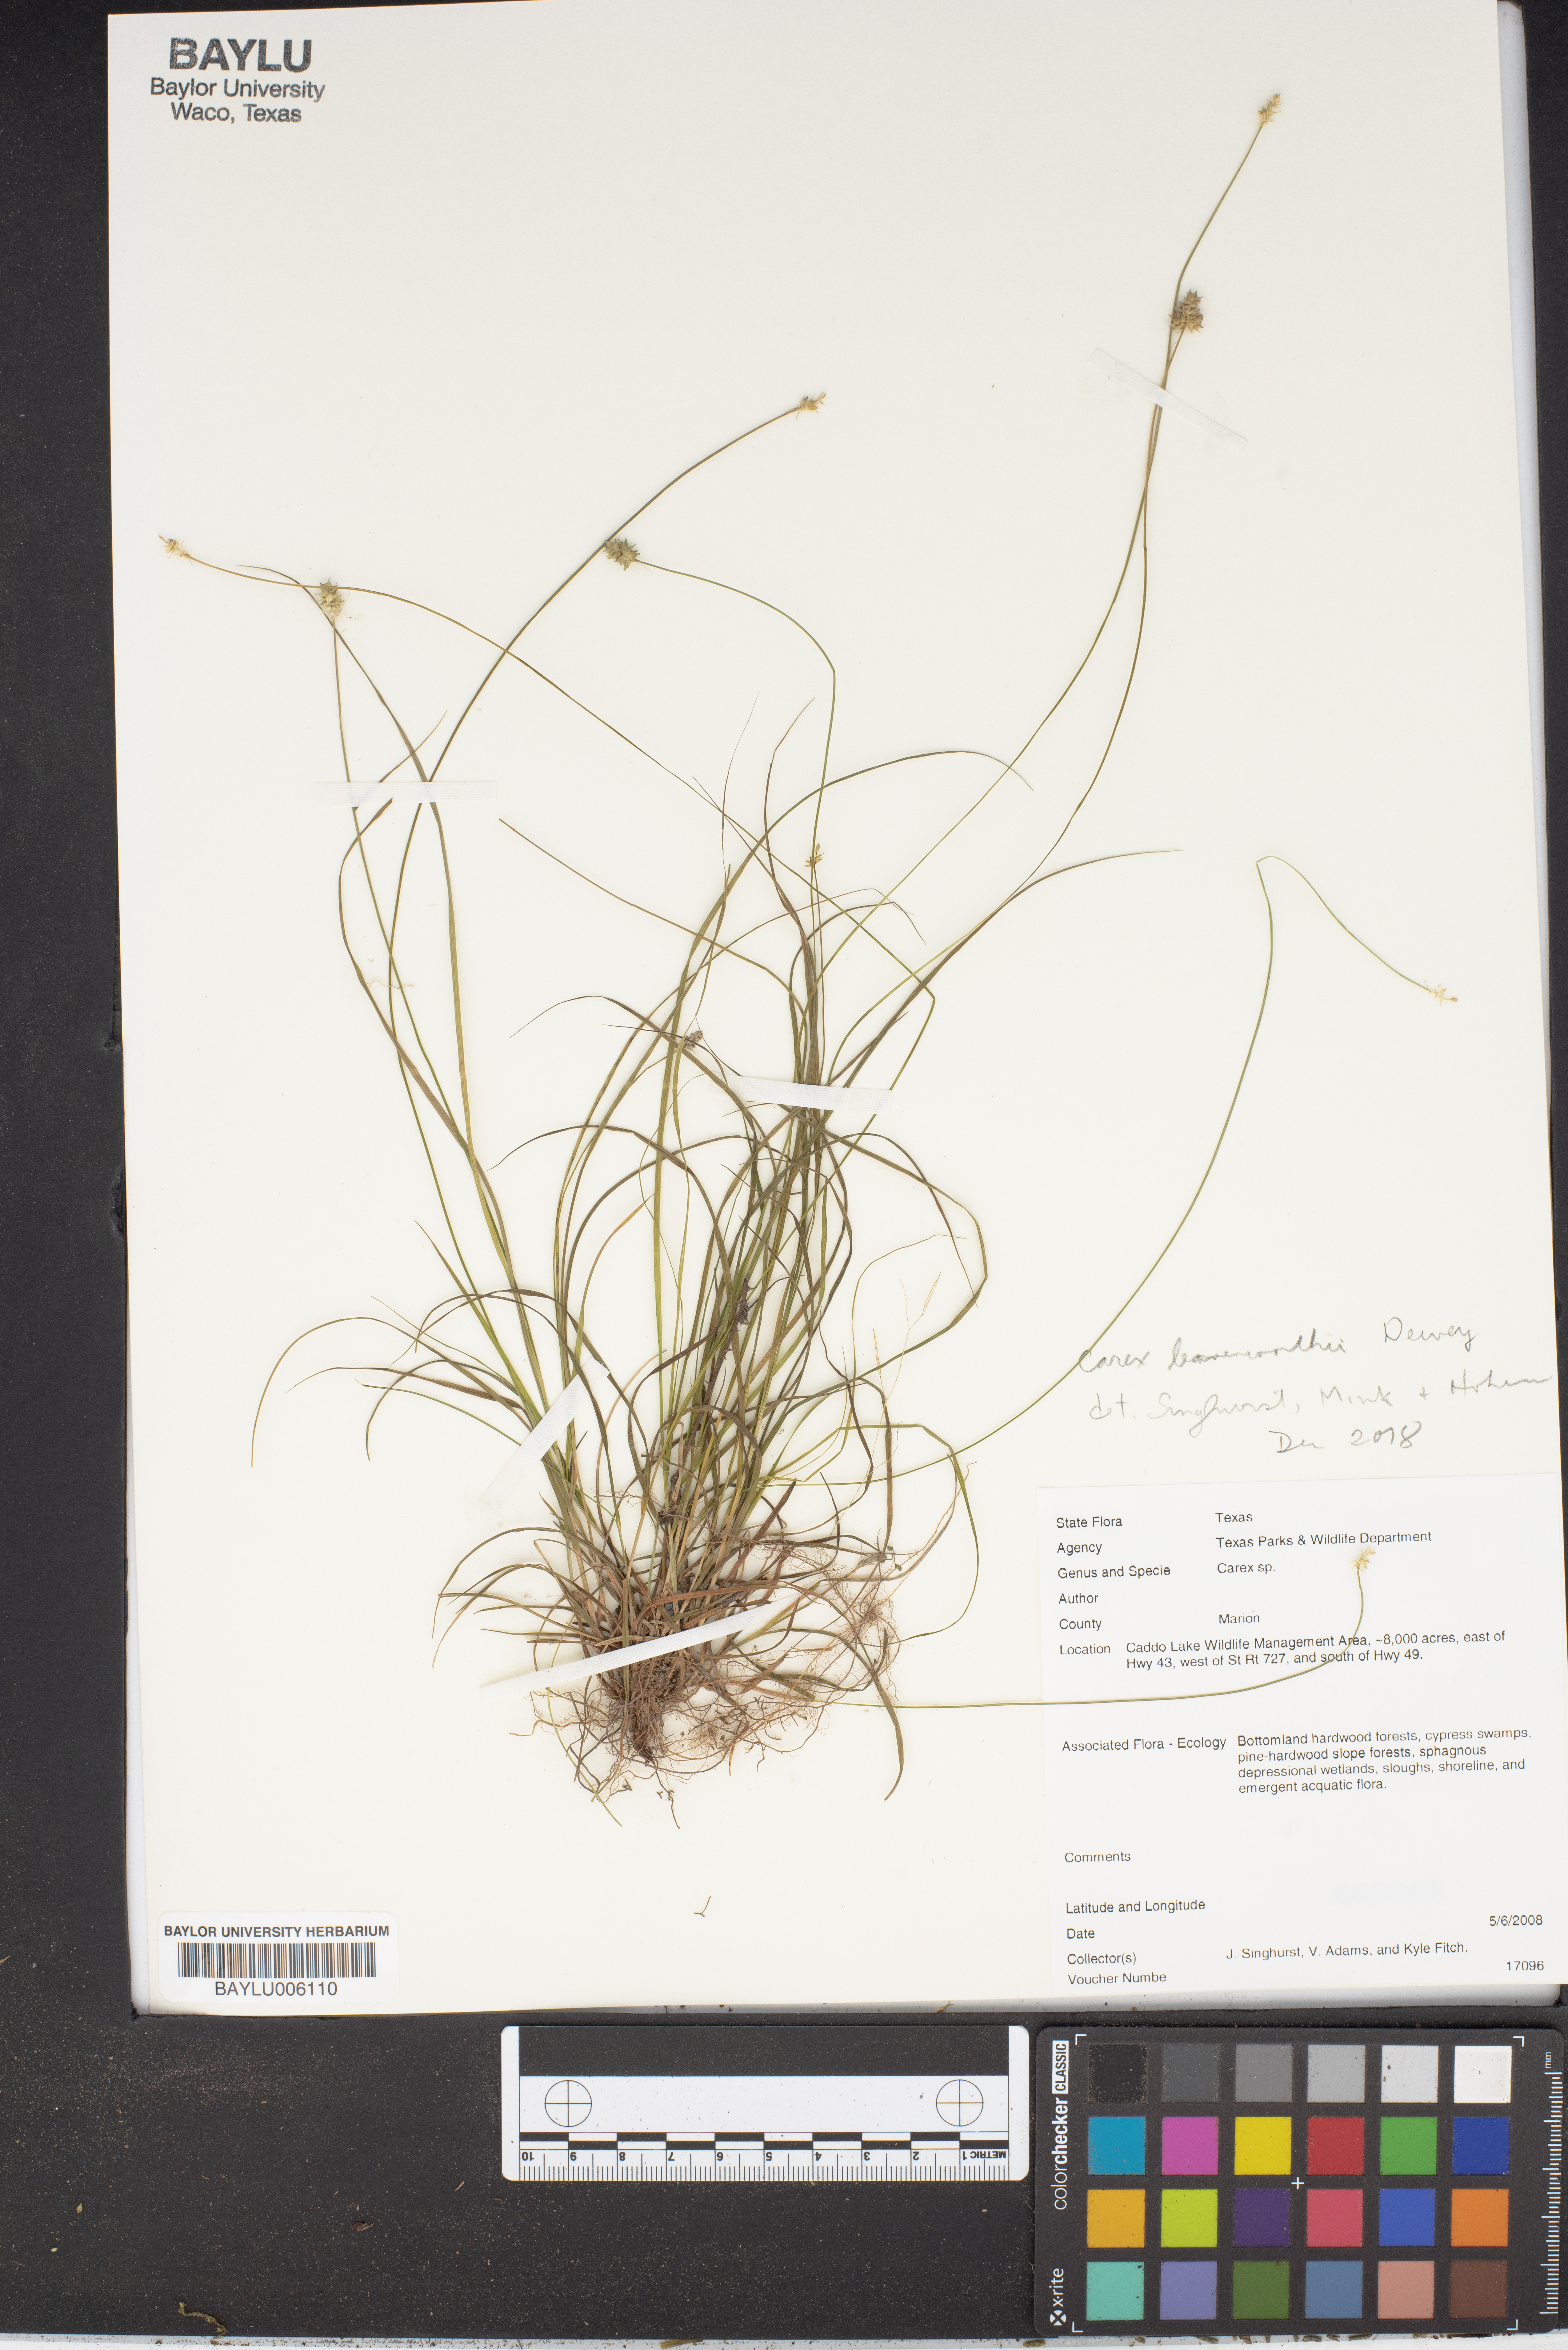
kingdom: Plantae
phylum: Tracheophyta
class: Liliopsida
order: Poales
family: Cyperaceae
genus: Carex
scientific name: Carex leavenworthii
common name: Leavenworth's bracted sedge
